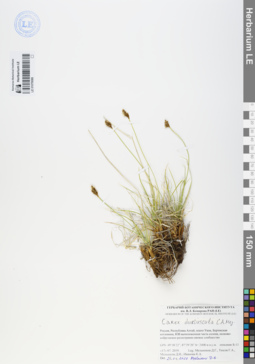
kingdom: Plantae
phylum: Tracheophyta
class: Liliopsida
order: Poales
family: Cyperaceae
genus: Carex
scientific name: Carex duriuscula
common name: Involute-leaved sedge
